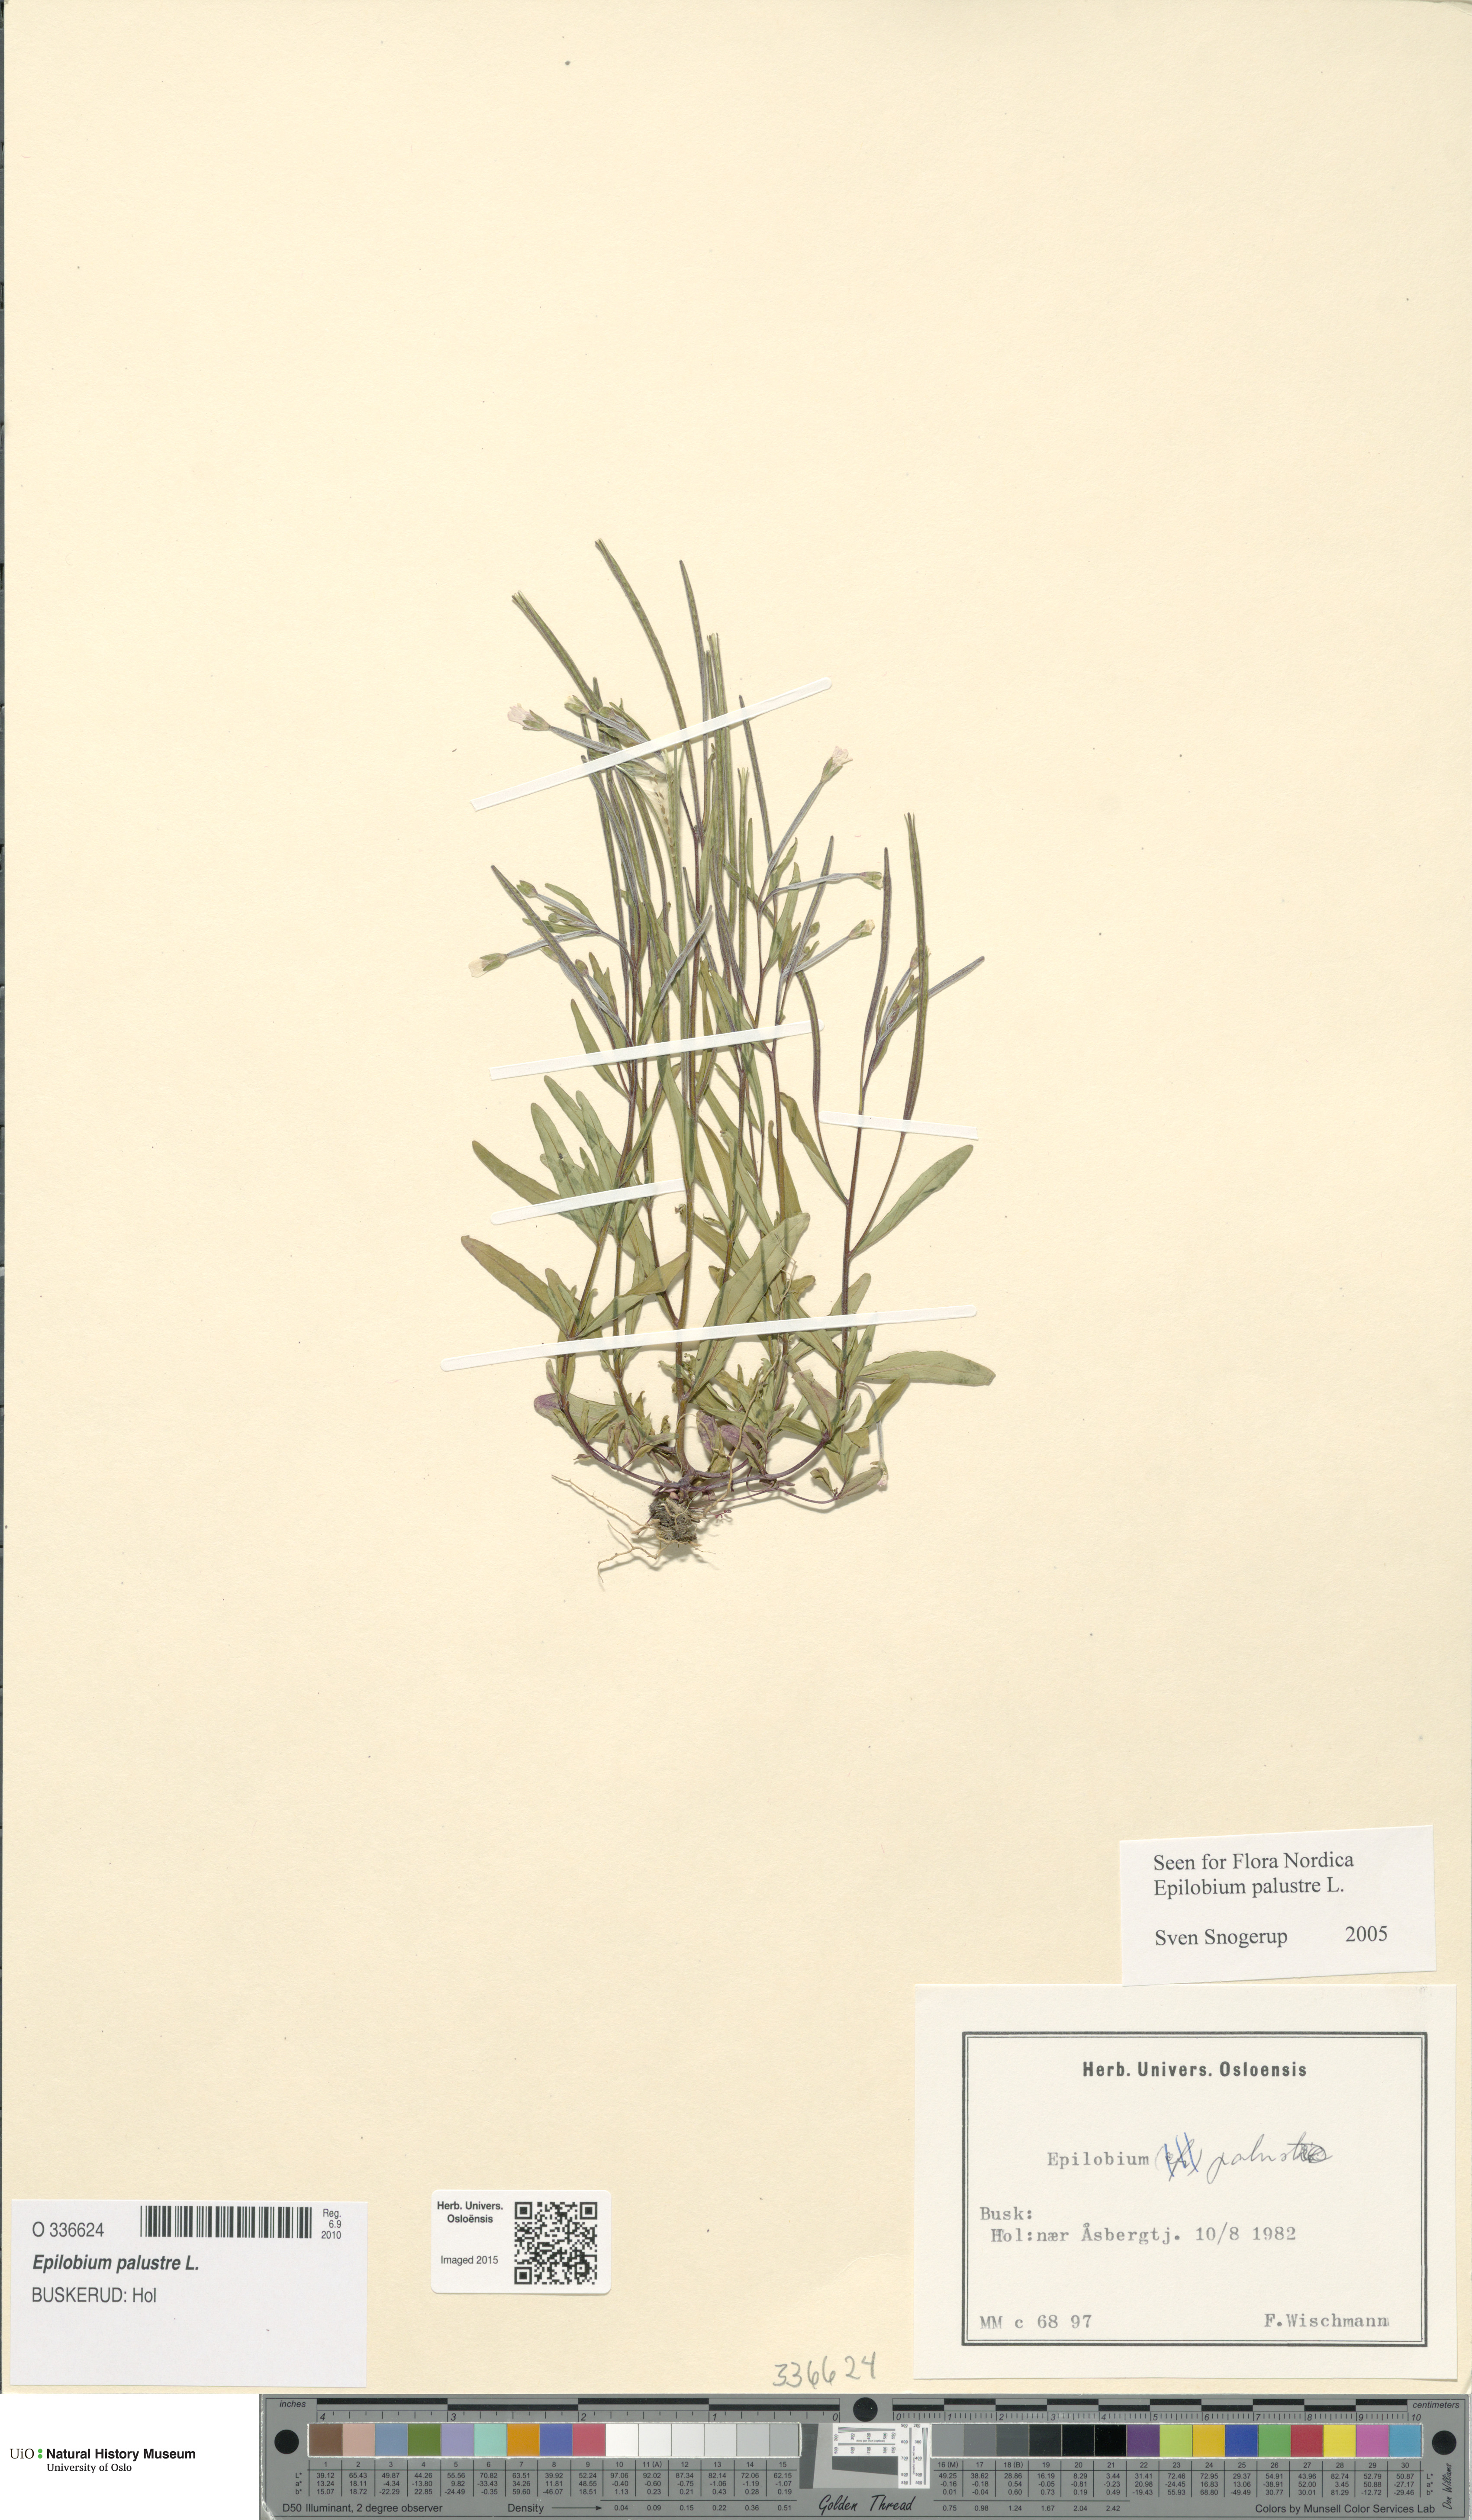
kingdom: Plantae
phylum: Tracheophyta
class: Magnoliopsida
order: Myrtales
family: Onagraceae
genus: Epilobium
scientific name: Epilobium palustre
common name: Marsh willowherb
